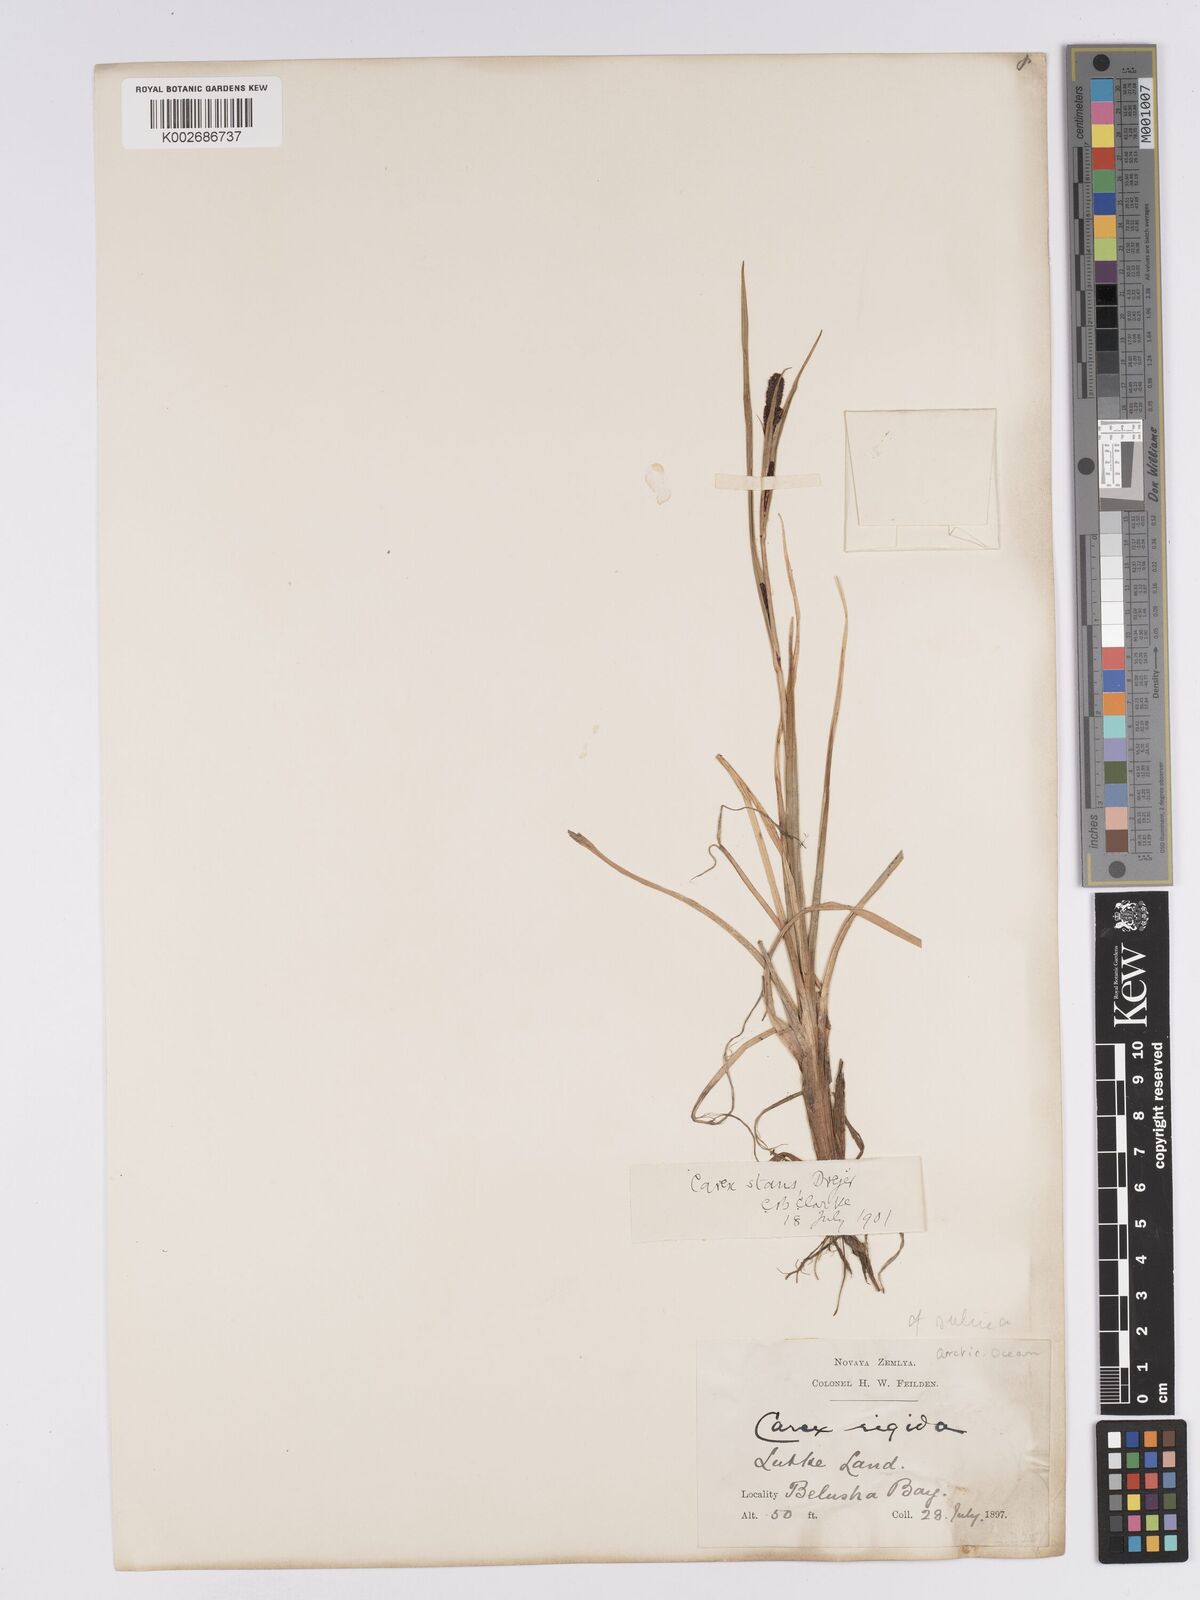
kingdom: Plantae
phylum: Tracheophyta
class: Liliopsida
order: Poales
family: Cyperaceae
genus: Carex
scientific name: Carex aquatilis
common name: Water sedge
